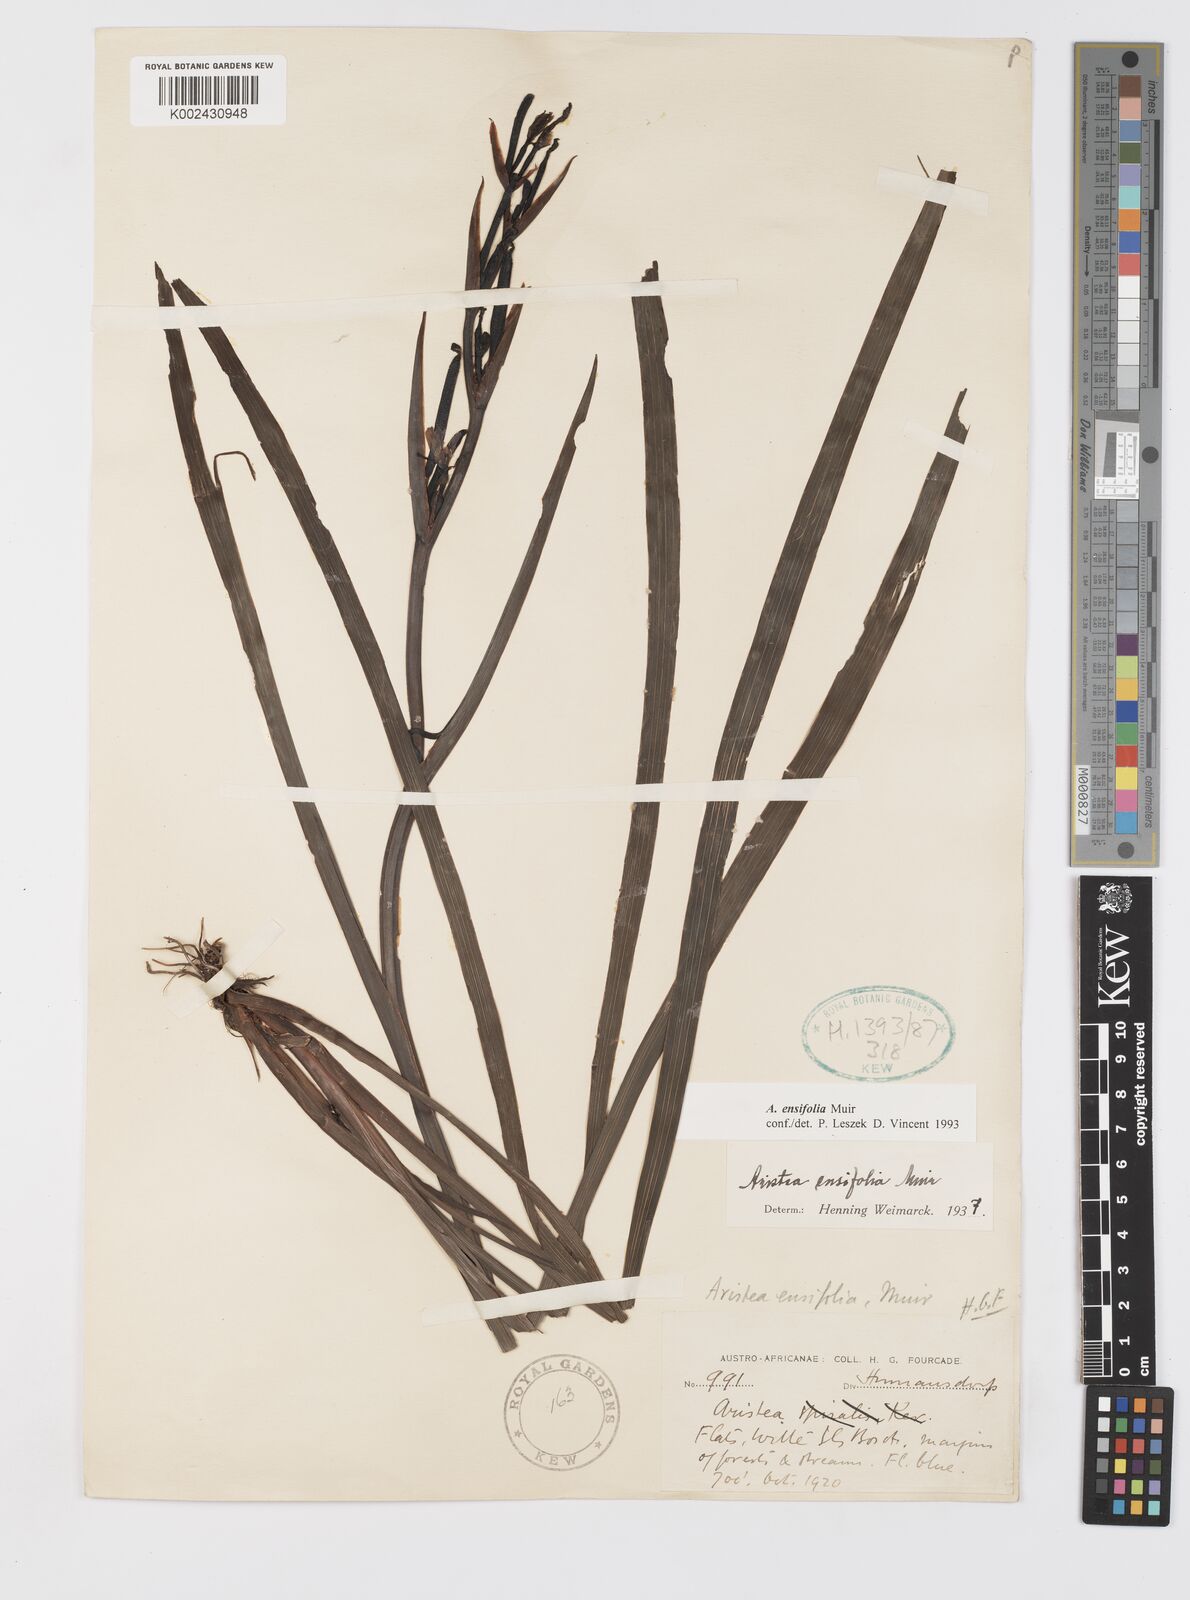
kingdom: Plantae
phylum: Tracheophyta
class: Liliopsida
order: Asparagales
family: Iridaceae
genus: Aristea
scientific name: Aristea ensifolia
